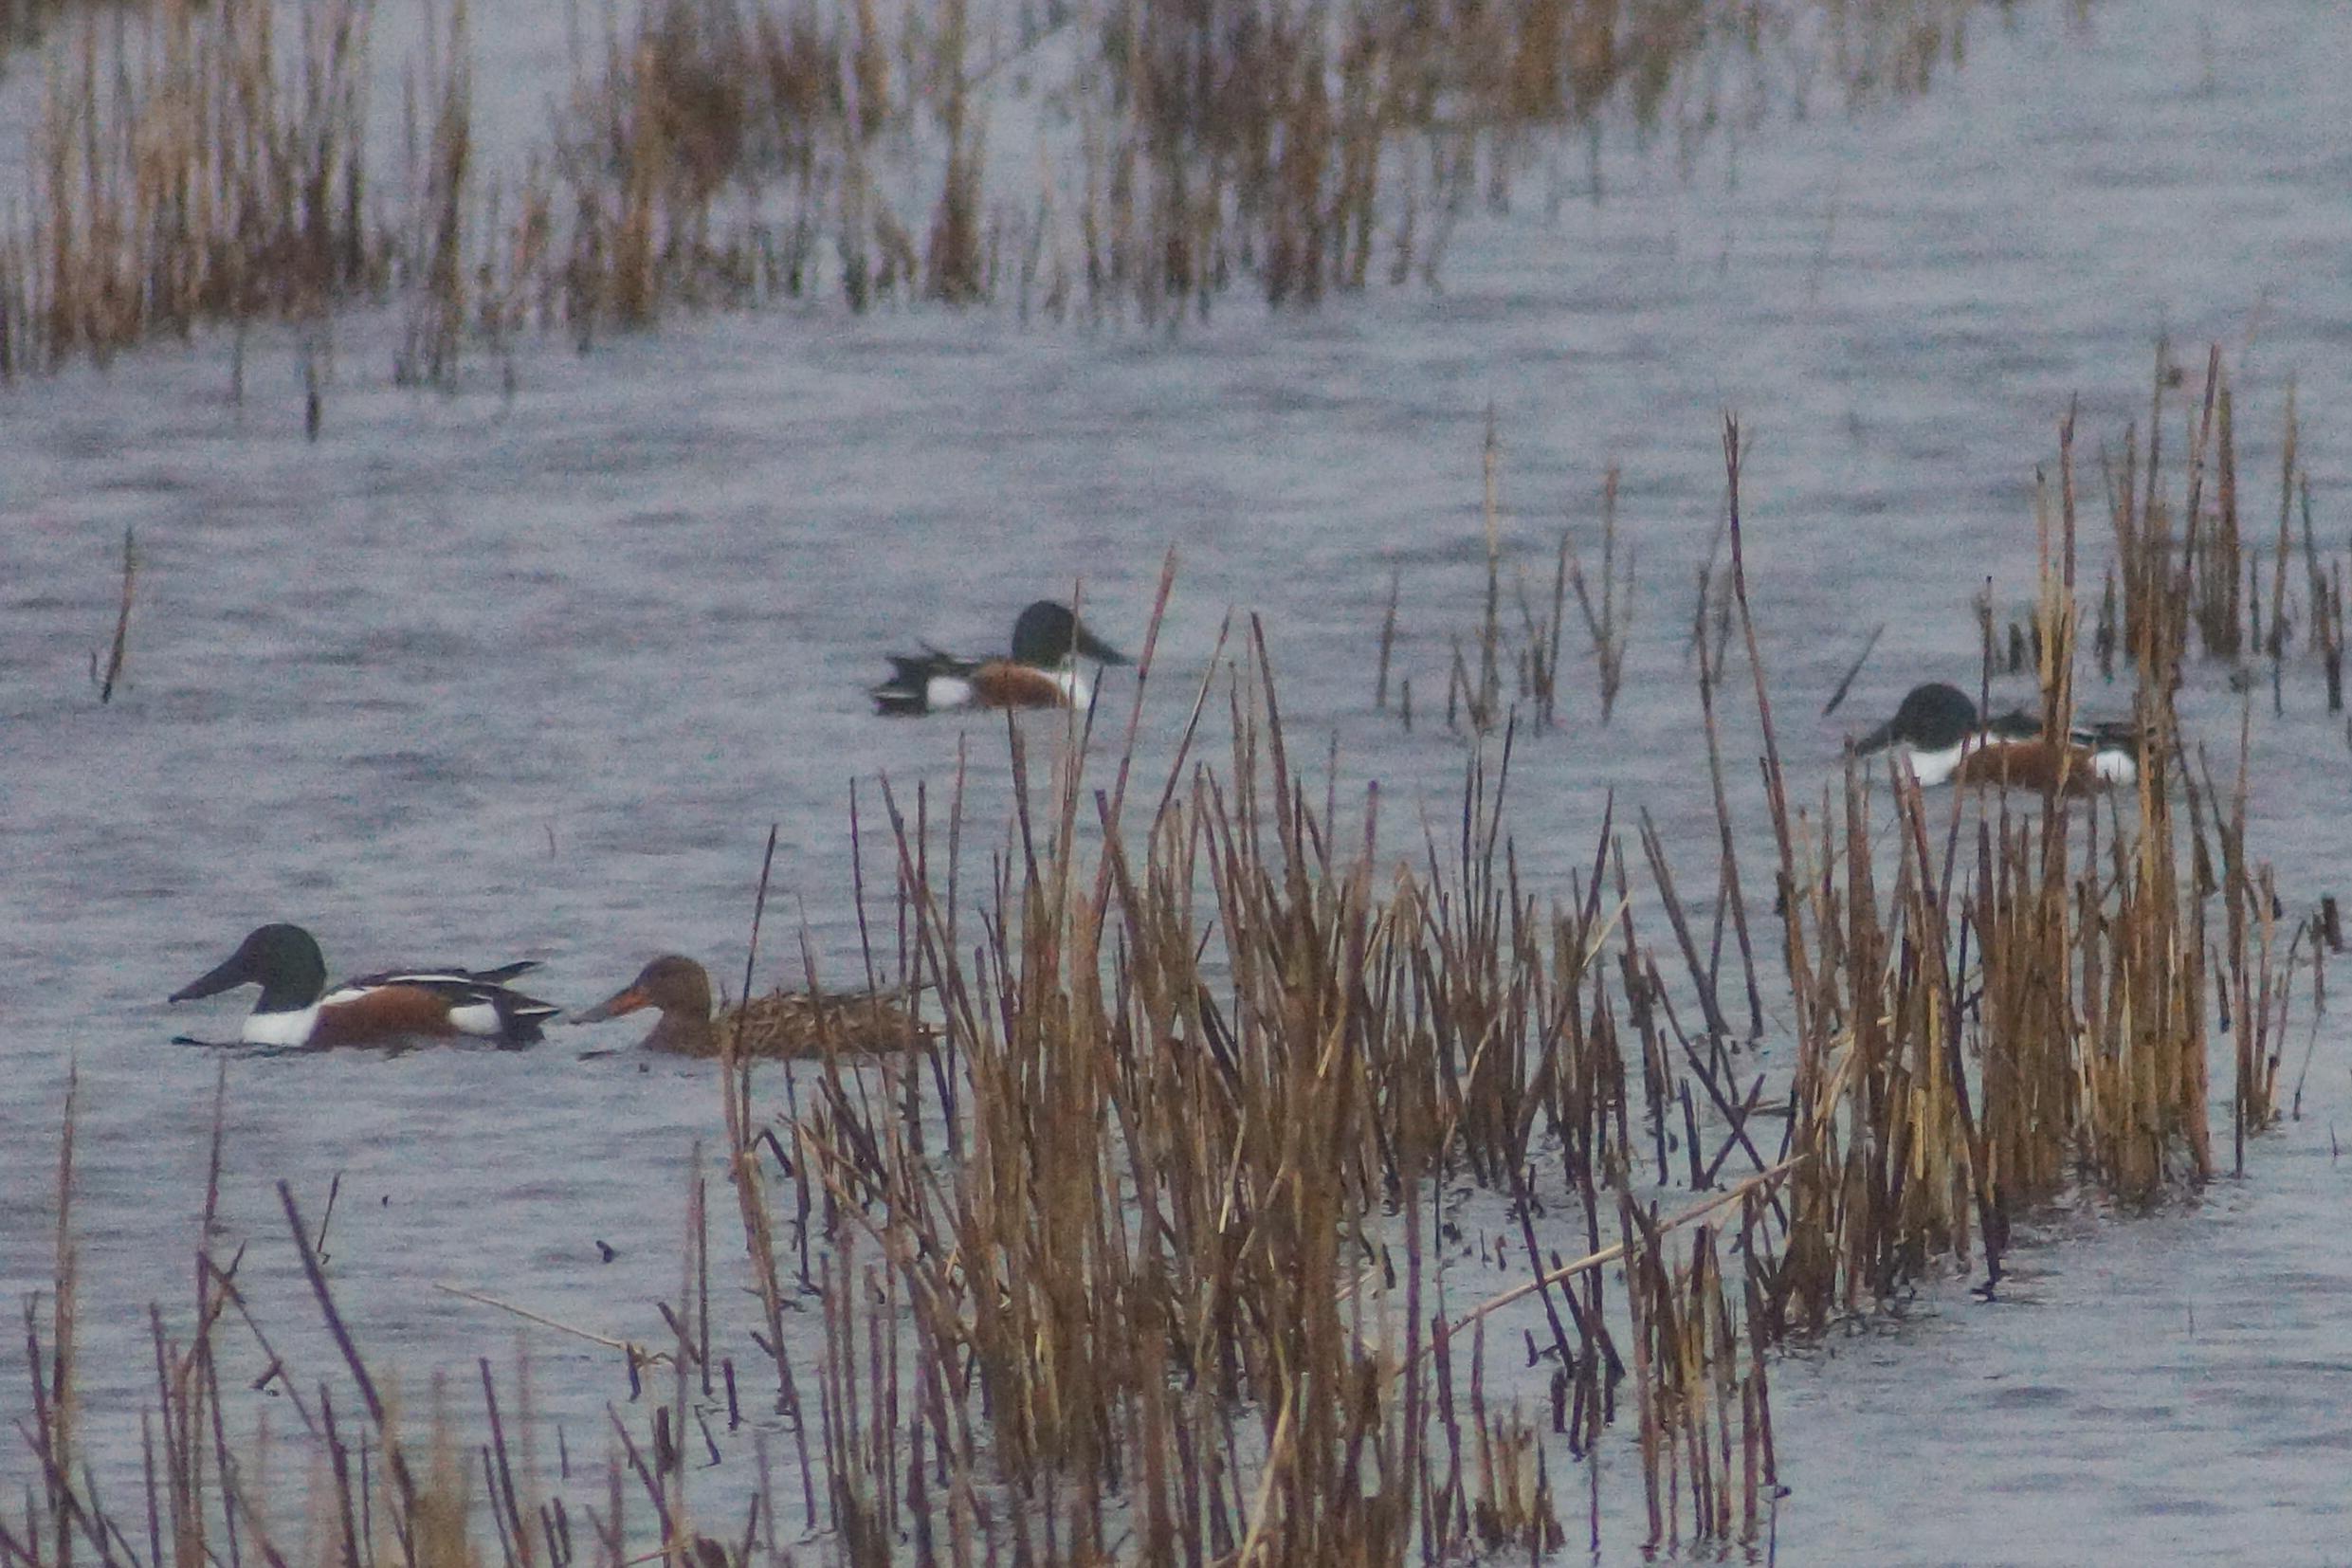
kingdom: Animalia
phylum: Chordata
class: Aves
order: Anseriformes
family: Anatidae
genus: Spatula
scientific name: Spatula clypeata
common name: Skeand
